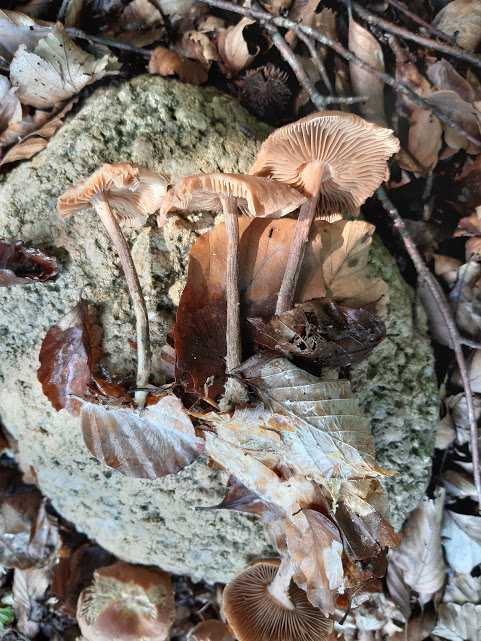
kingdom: Fungi
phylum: Basidiomycota
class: Agaricomycetes
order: Agaricales
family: Omphalotaceae
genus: Collybiopsis
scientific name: Collybiopsis peronata
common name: bestøvlet fladhat
